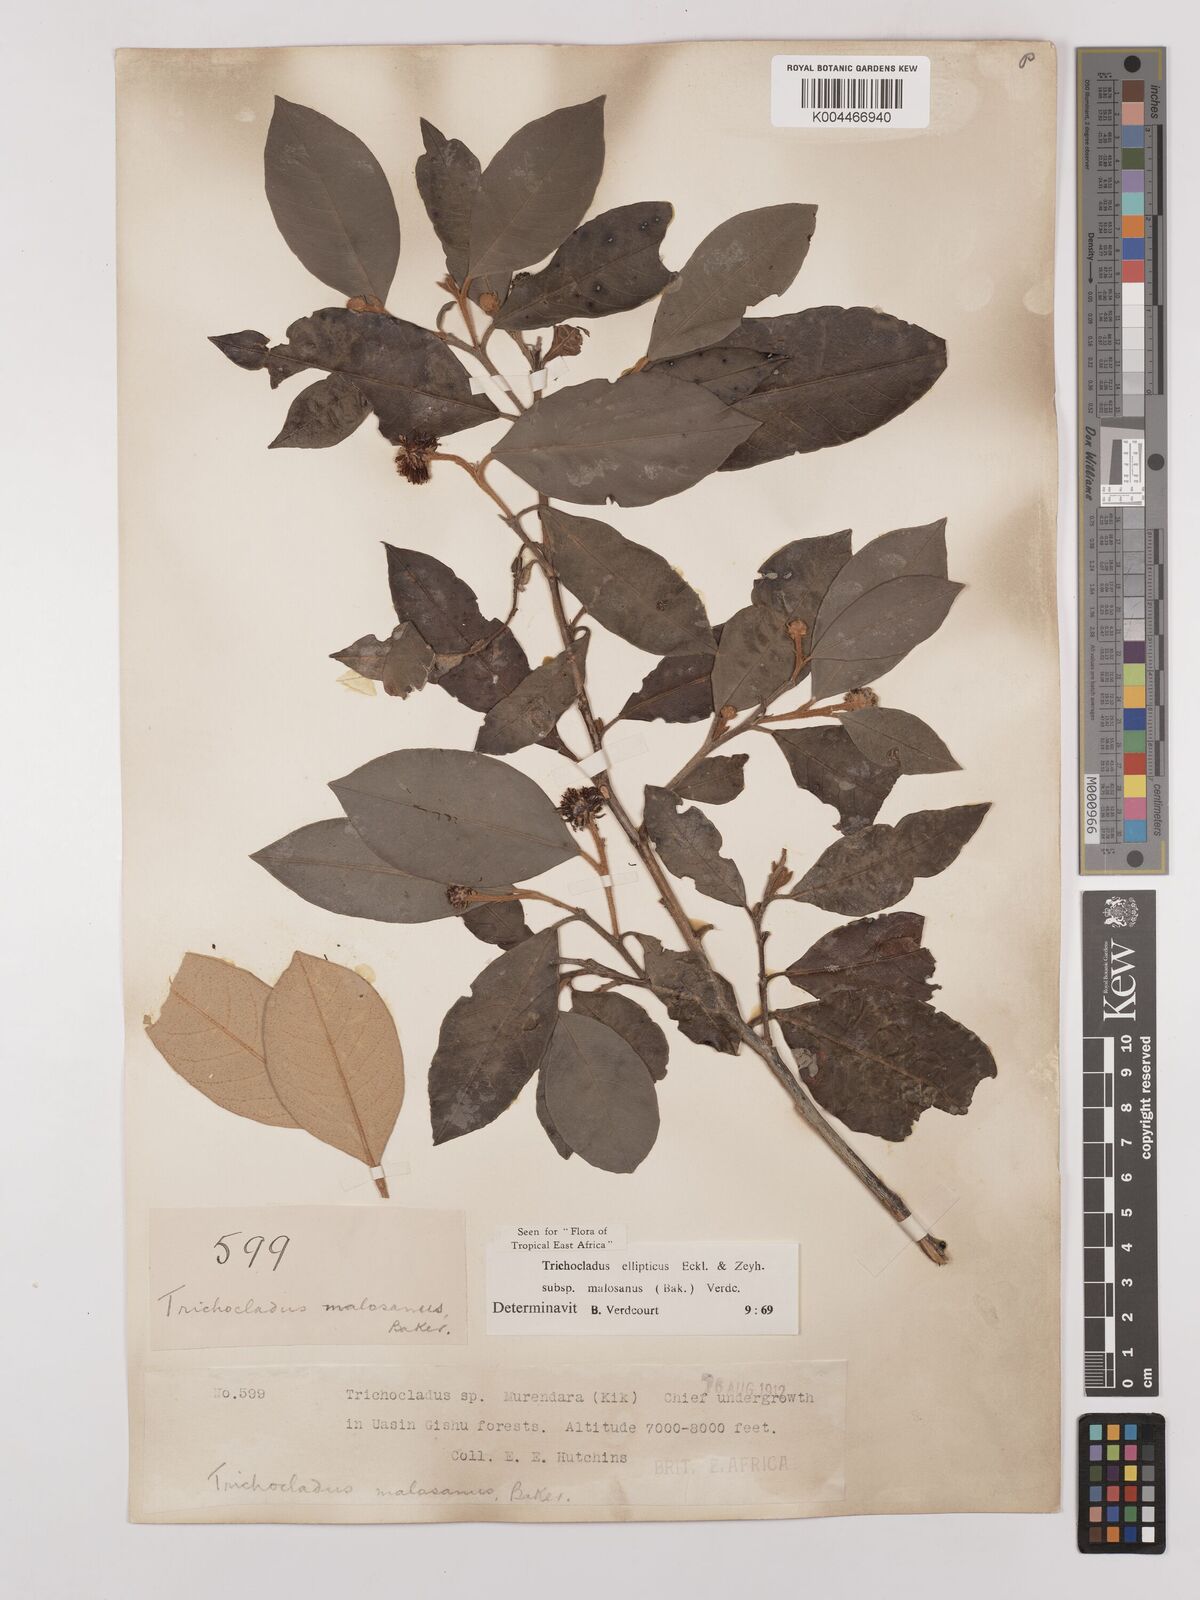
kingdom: Plantae
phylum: Tracheophyta
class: Magnoliopsida
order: Saxifragales
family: Hamamelidaceae
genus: Trichocladus
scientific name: Trichocladus ellipticus
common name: White witch-hazel
